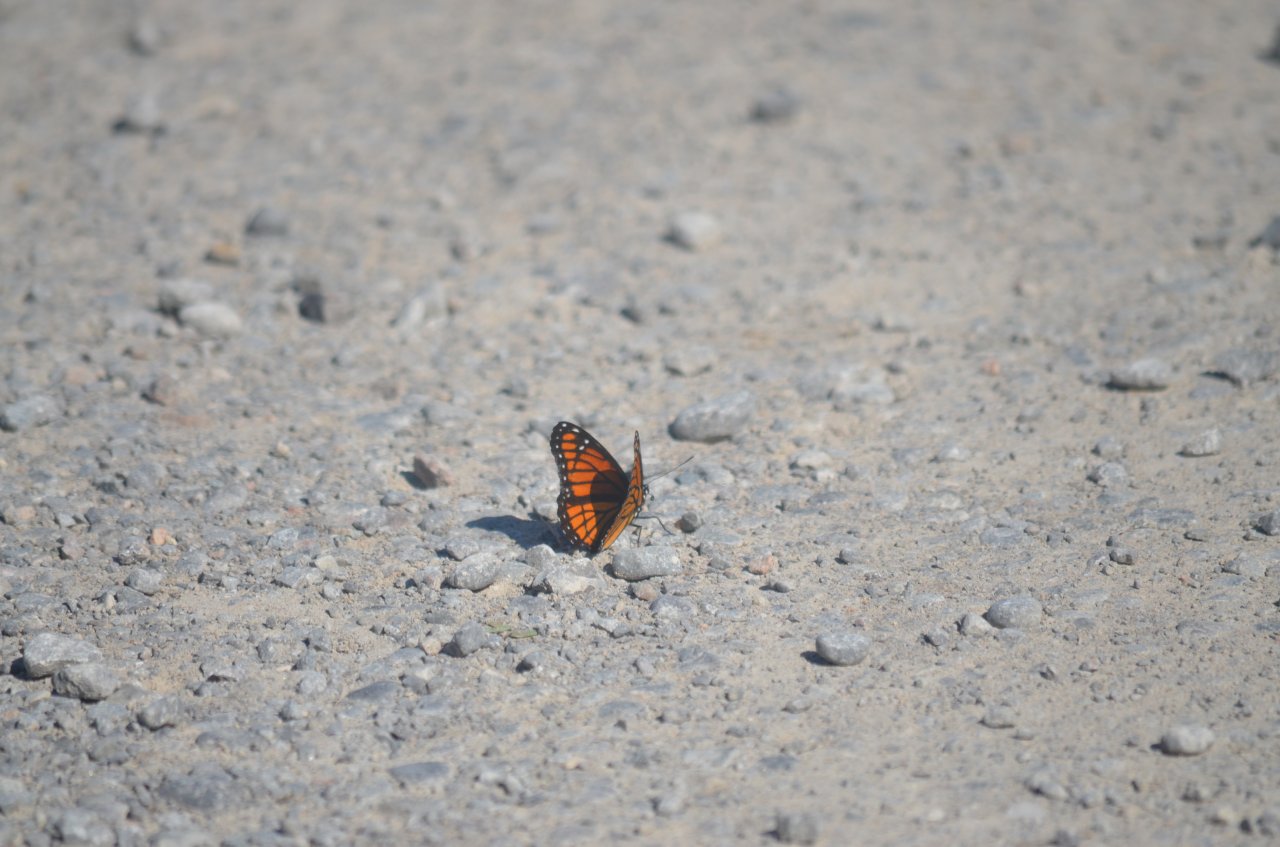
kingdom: Animalia
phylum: Arthropoda
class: Insecta
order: Lepidoptera
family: Nymphalidae
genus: Limenitis
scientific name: Limenitis archippus
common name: Viceroy
